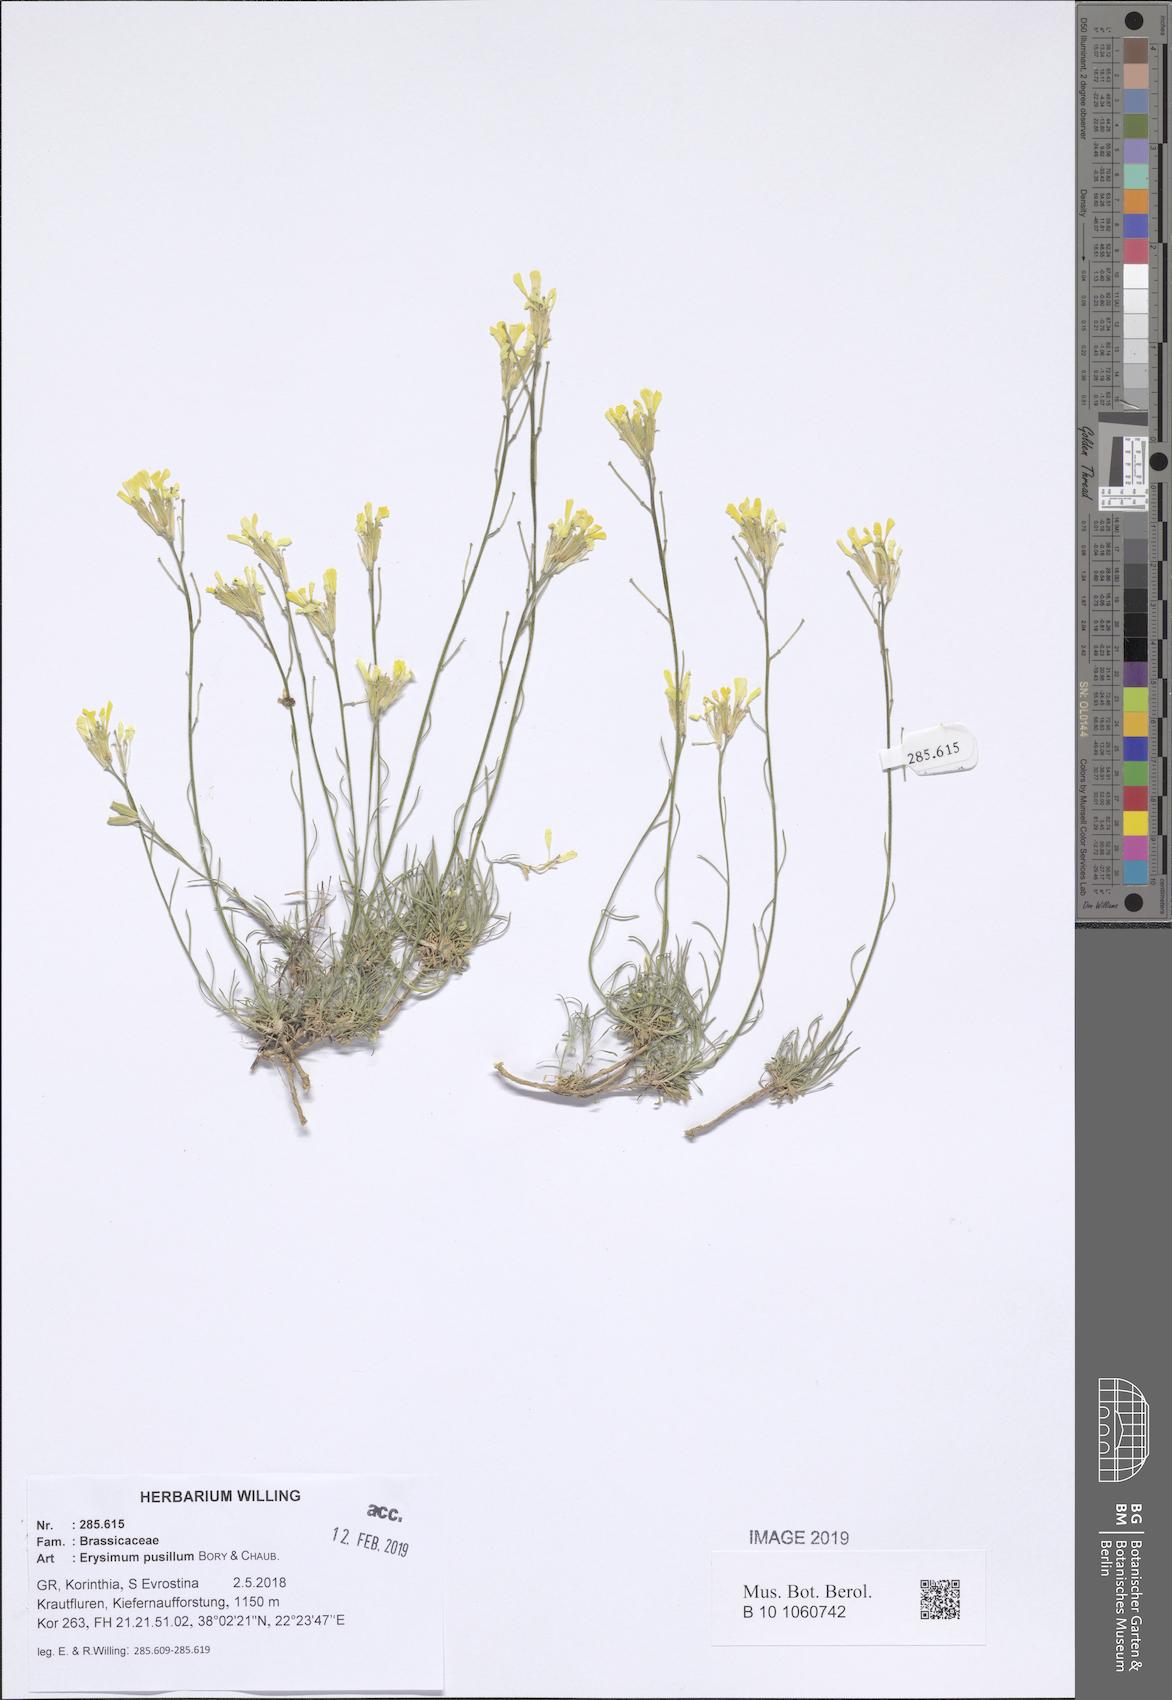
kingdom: Plantae
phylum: Tracheophyta
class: Magnoliopsida
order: Brassicales
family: Brassicaceae
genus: Erysimum
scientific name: Erysimum pusillum
